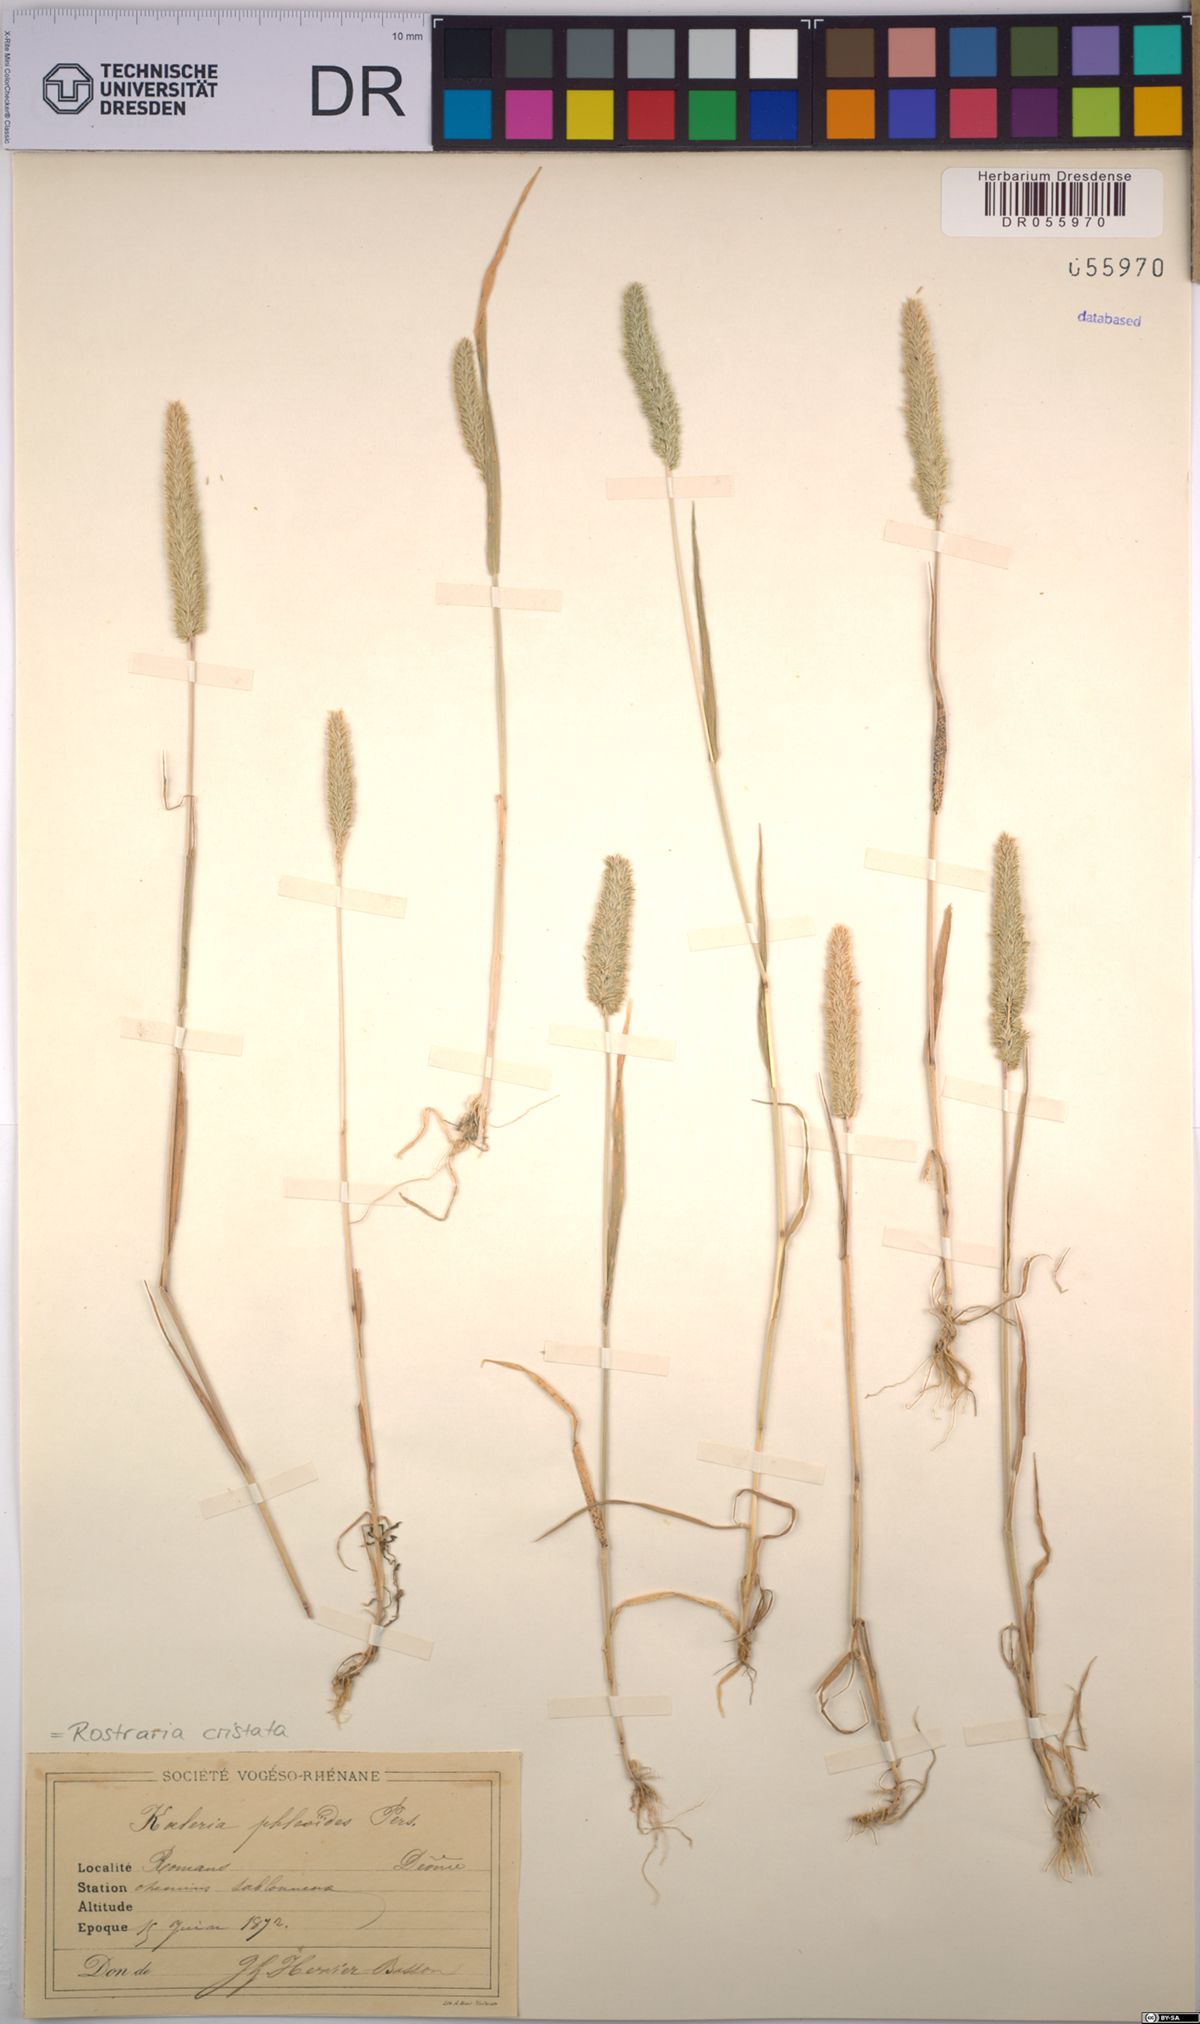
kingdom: Plantae
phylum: Tracheophyta
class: Liliopsida
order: Poales
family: Poaceae
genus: Rostraria
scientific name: Rostraria cristata
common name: Mediterranean hair-grass
